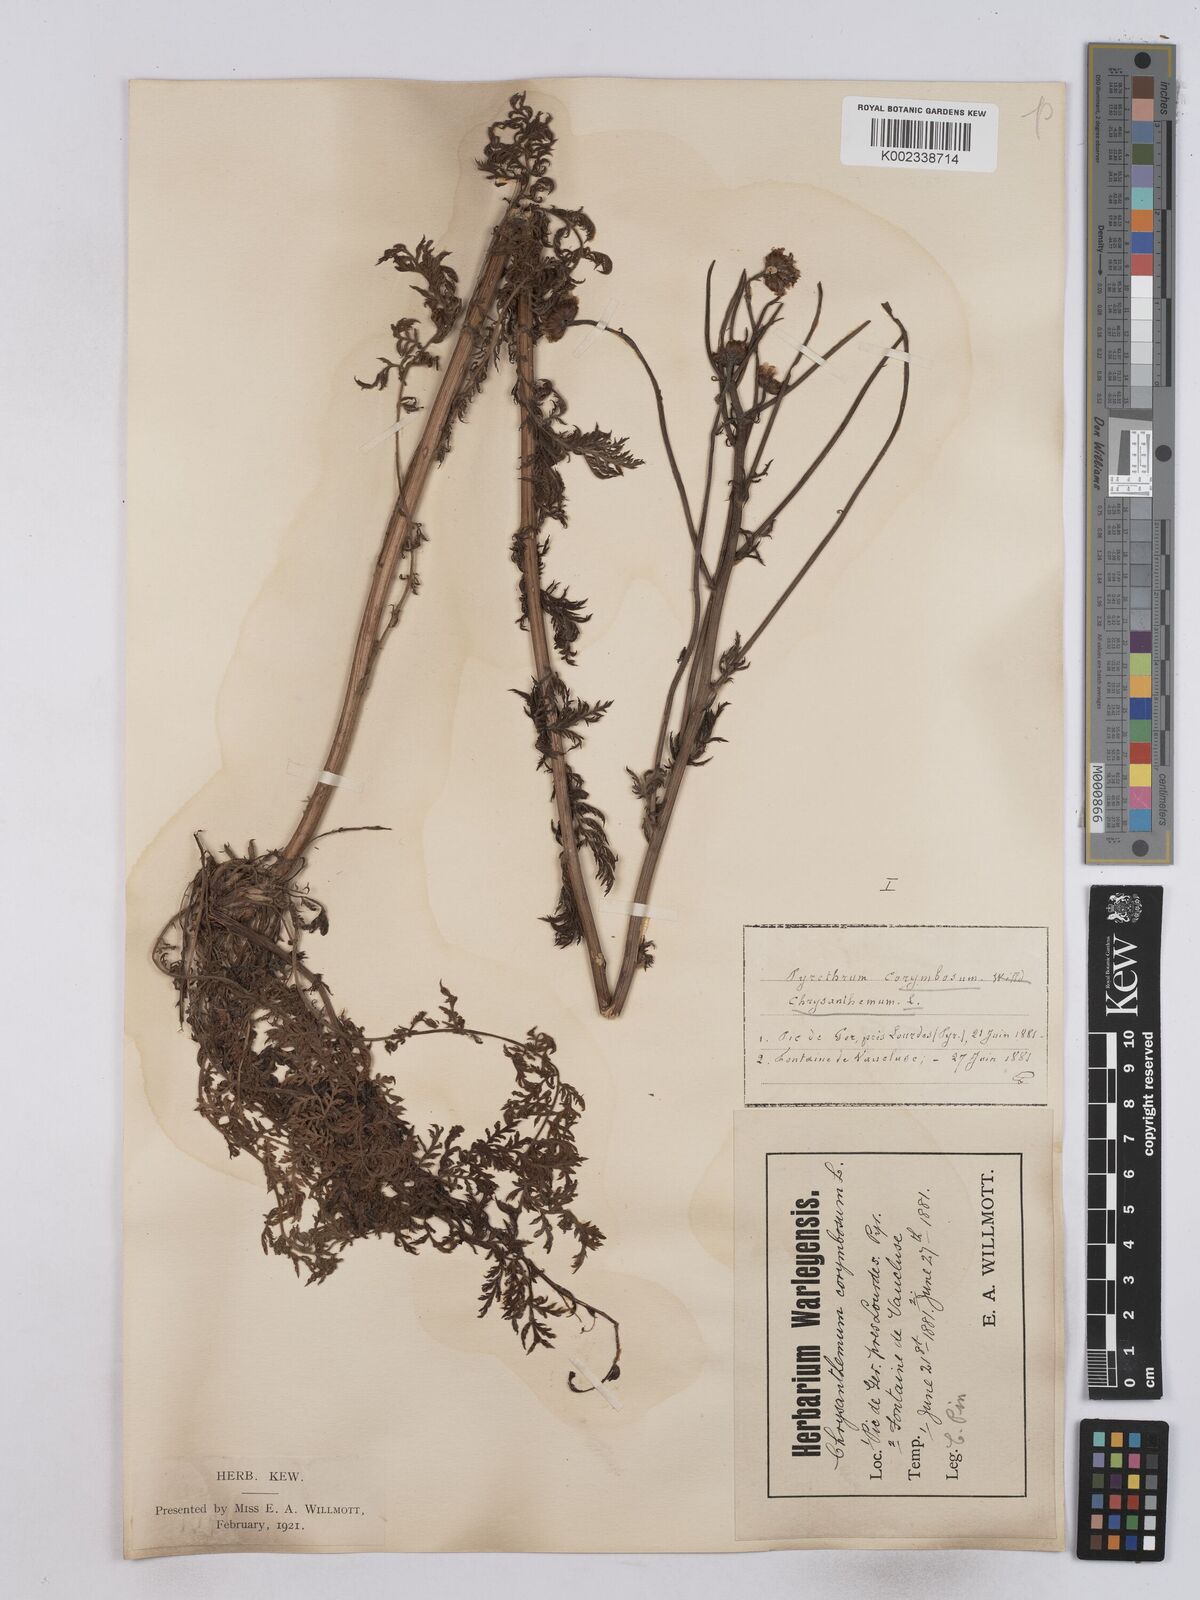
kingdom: Plantae
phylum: Tracheophyta
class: Magnoliopsida
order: Asterales
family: Asteraceae
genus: Tanacetum
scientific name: Tanacetum corymbosum
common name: Scentless feverfew
